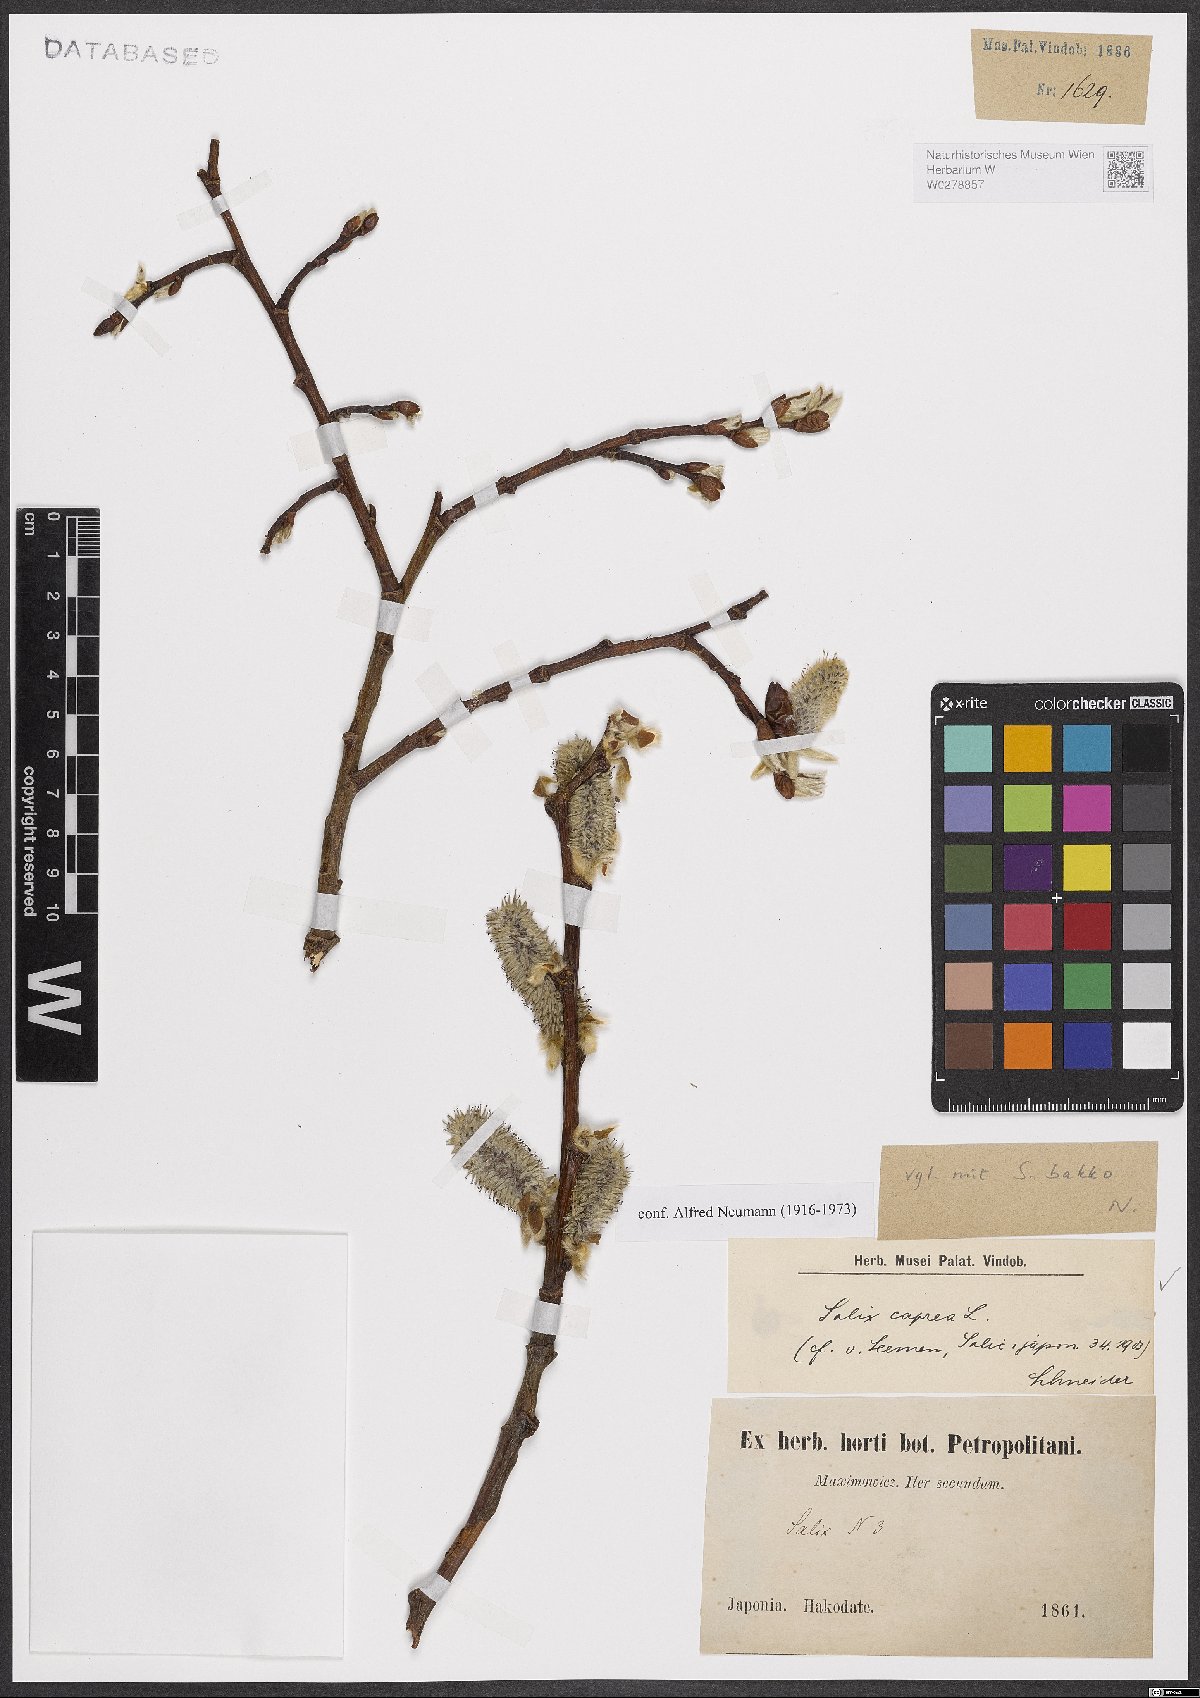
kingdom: Plantae
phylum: Tracheophyta
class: Magnoliopsida
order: Malpighiales
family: Salicaceae
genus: Salix
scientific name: Salix caprea
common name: Goat willow
